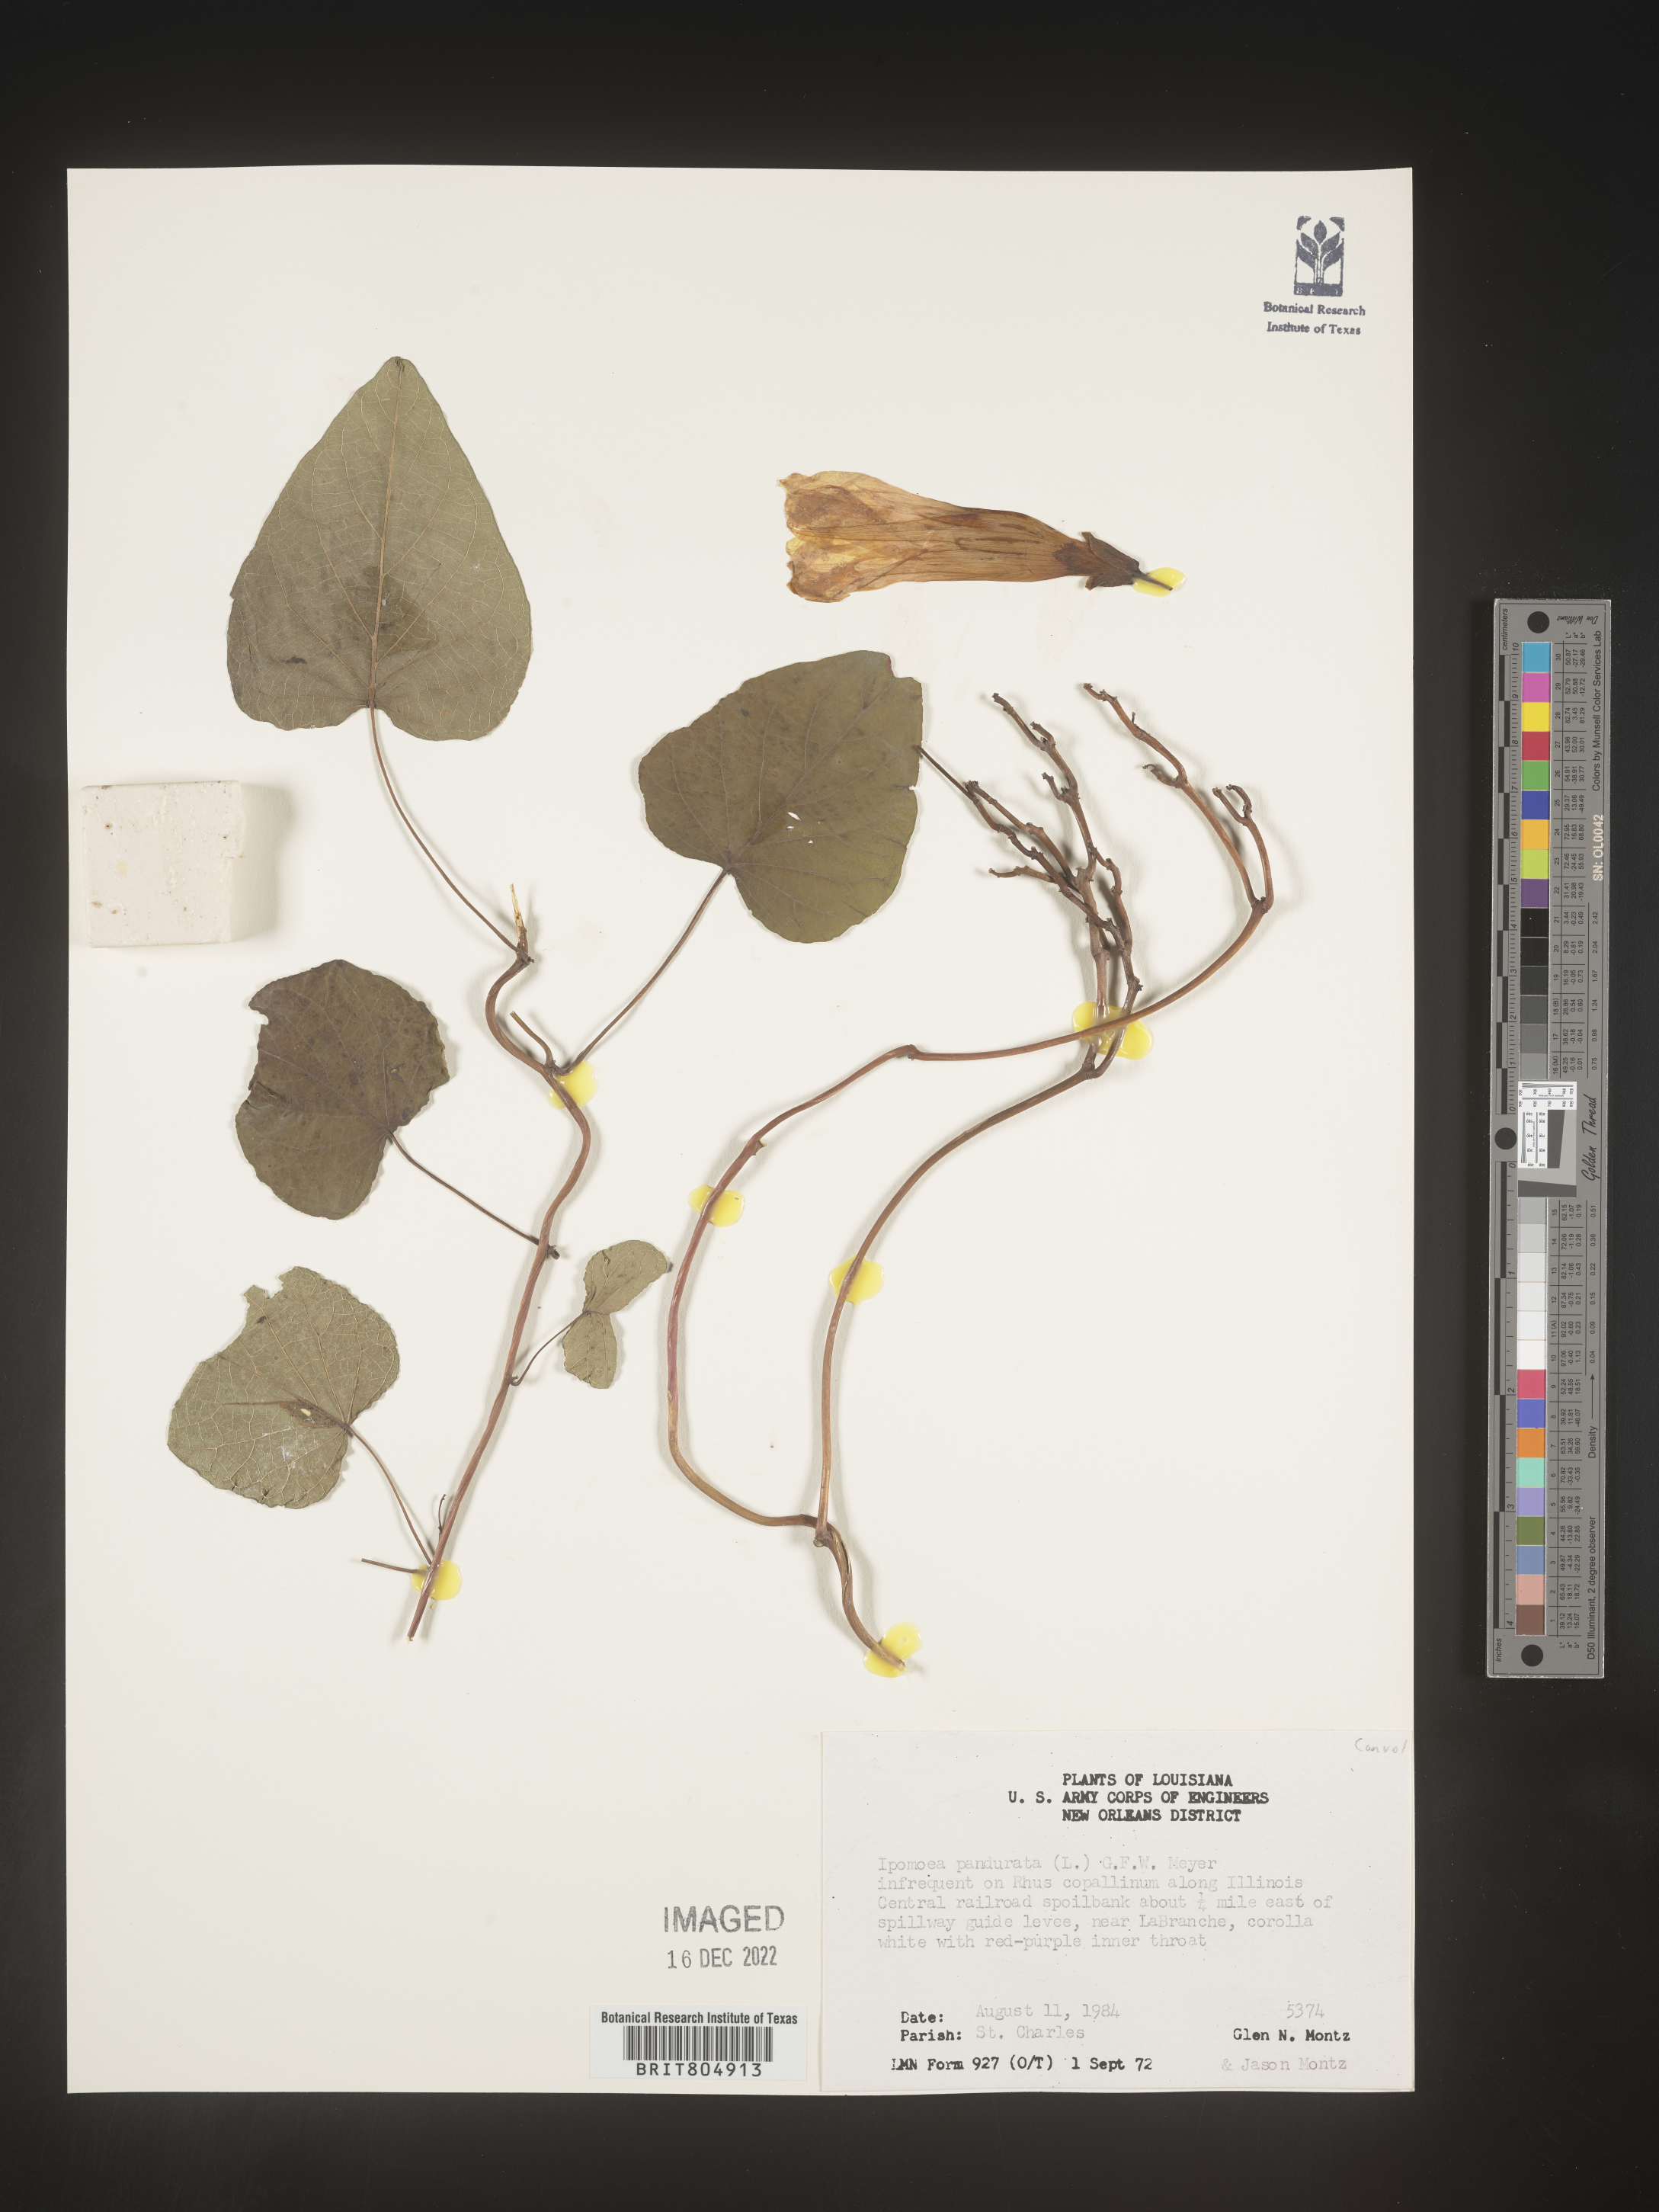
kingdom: Plantae
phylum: Tracheophyta
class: Magnoliopsida
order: Solanales
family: Convolvulaceae
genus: Ipomoea
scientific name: Ipomoea pandurata
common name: Man-of-the-earth
